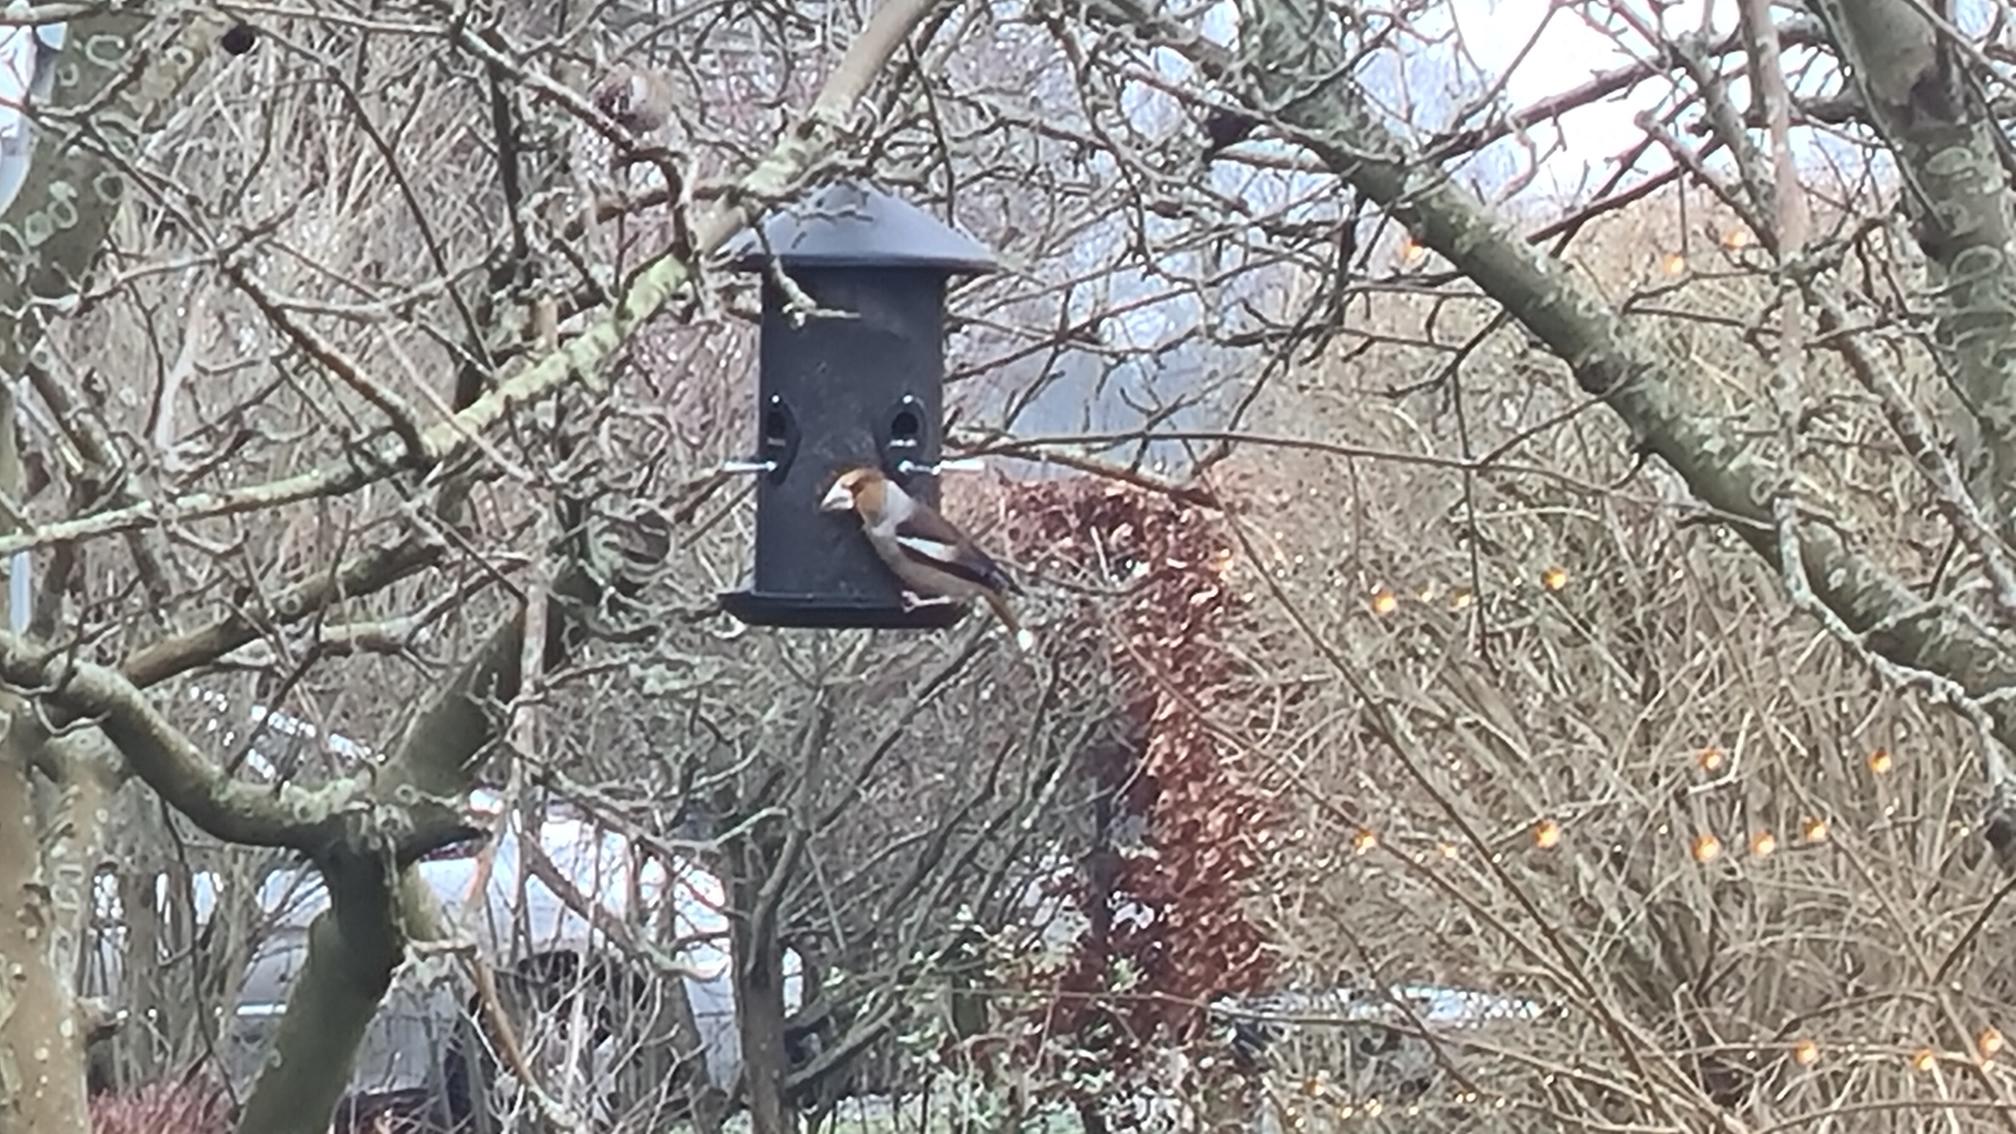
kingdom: Animalia
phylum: Chordata
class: Aves
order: Passeriformes
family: Fringillidae
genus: Coccothraustes
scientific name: Coccothraustes coccothraustes
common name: Kernebider
